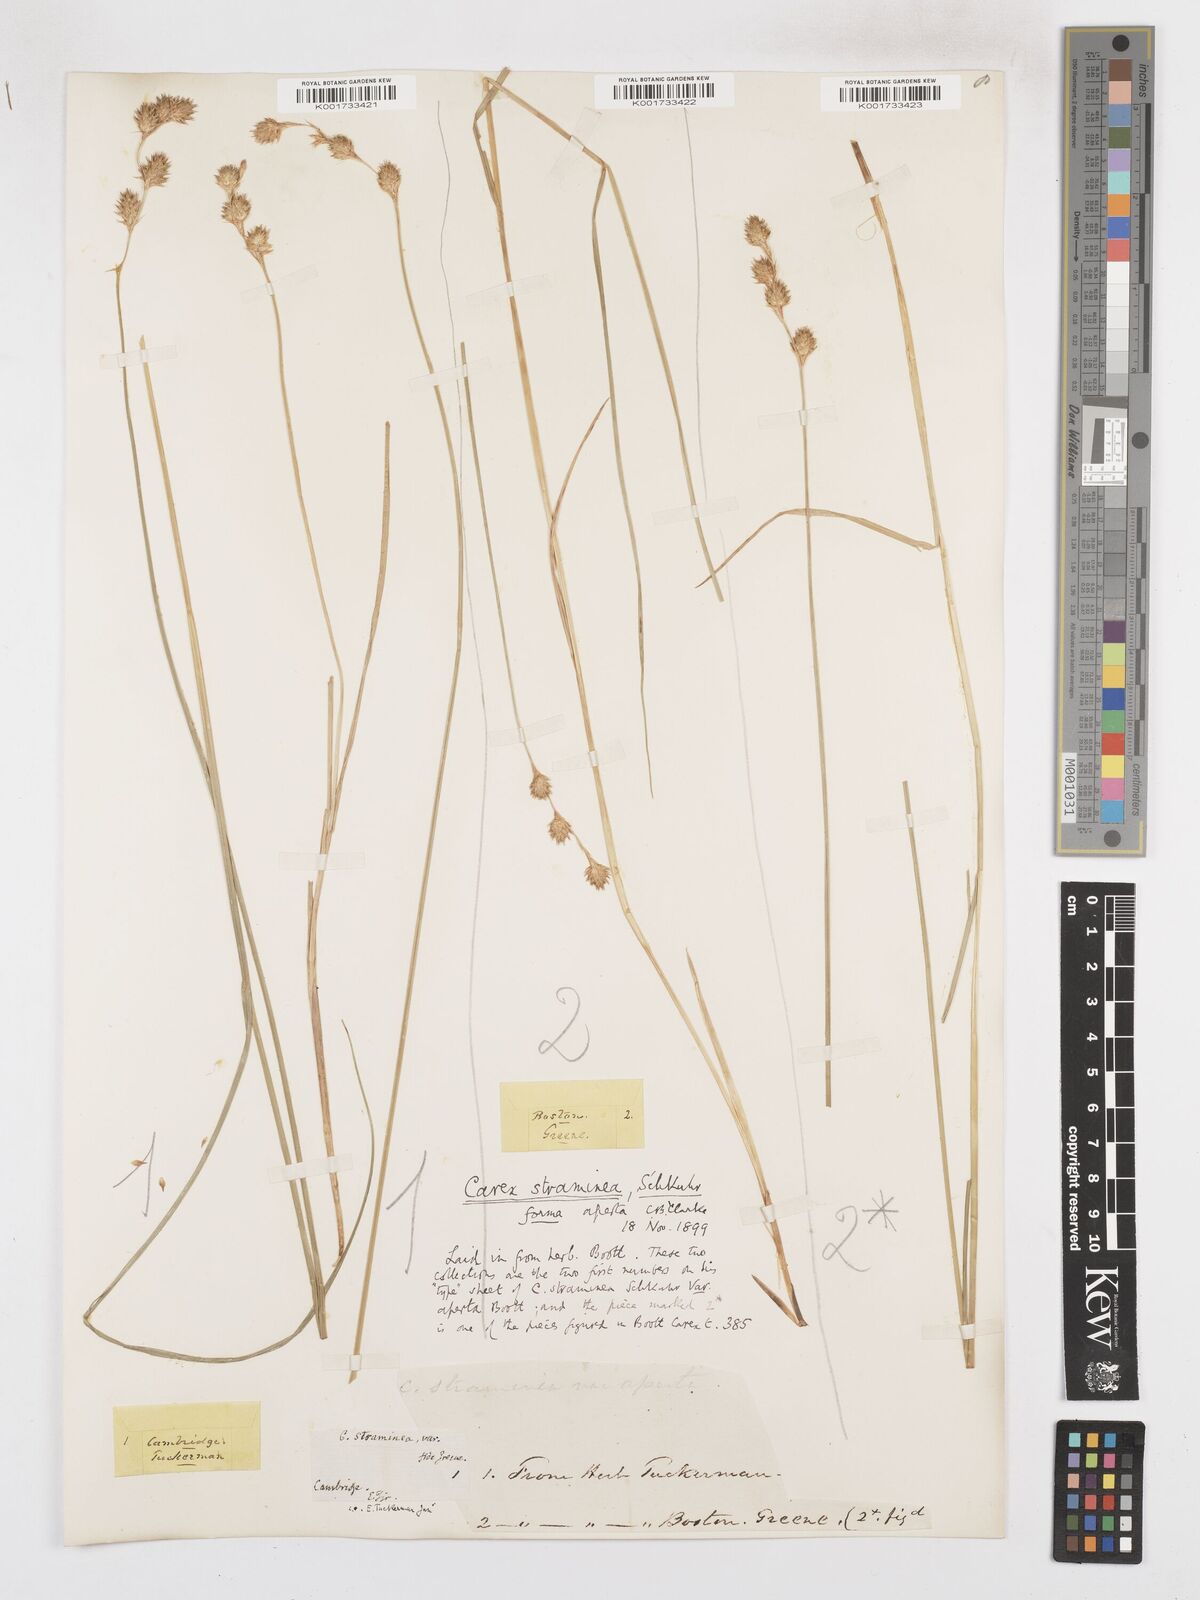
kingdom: Plantae
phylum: Tracheophyta
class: Liliopsida
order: Poales
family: Cyperaceae
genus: Carex
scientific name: Carex straminea
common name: Eastern straw sedge
